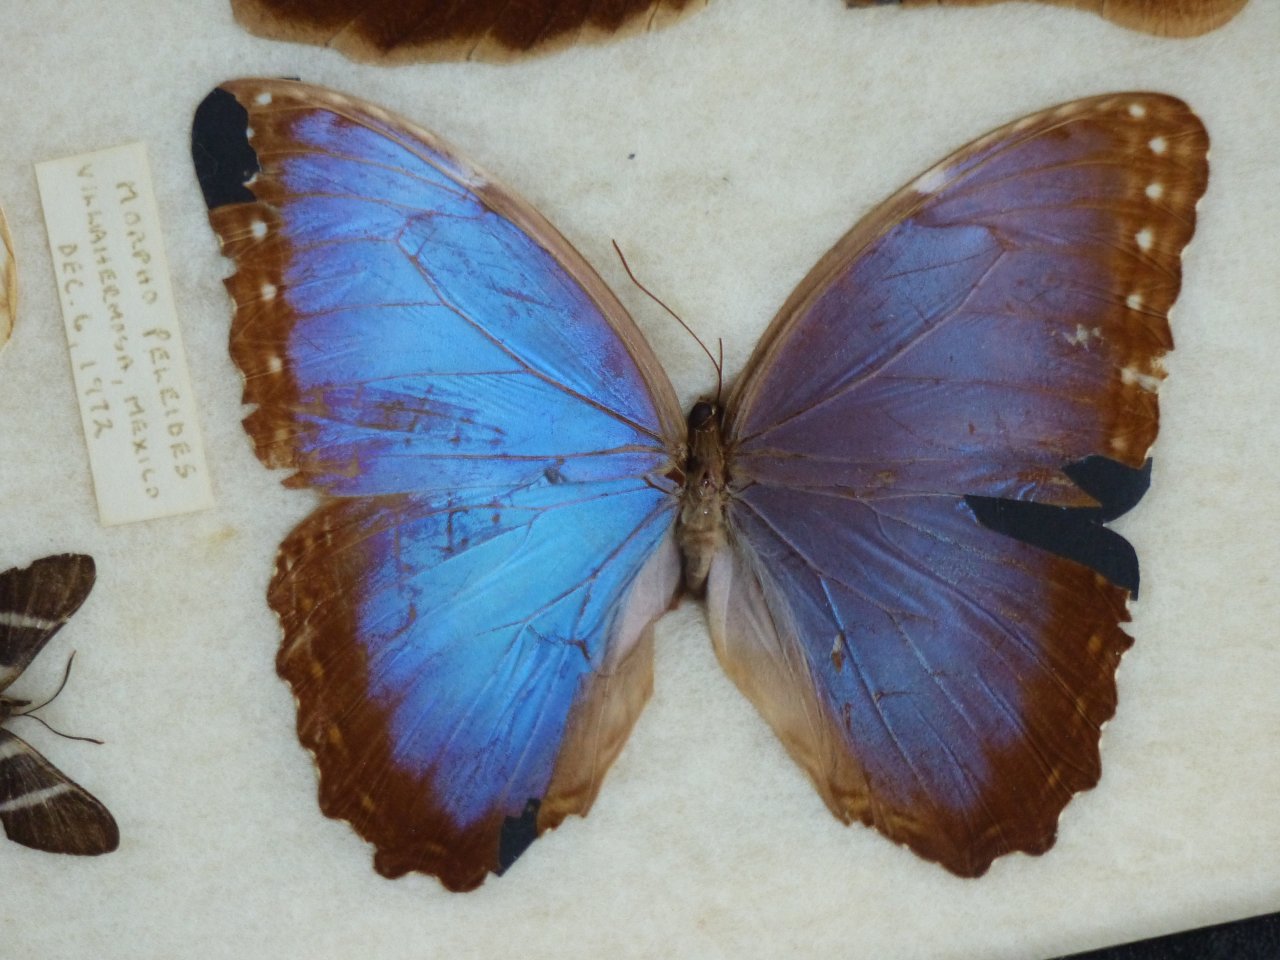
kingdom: Animalia
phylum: Arthropoda
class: Insecta
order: Lepidoptera
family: Nymphalidae
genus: Morpho
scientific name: Morpho helenor
